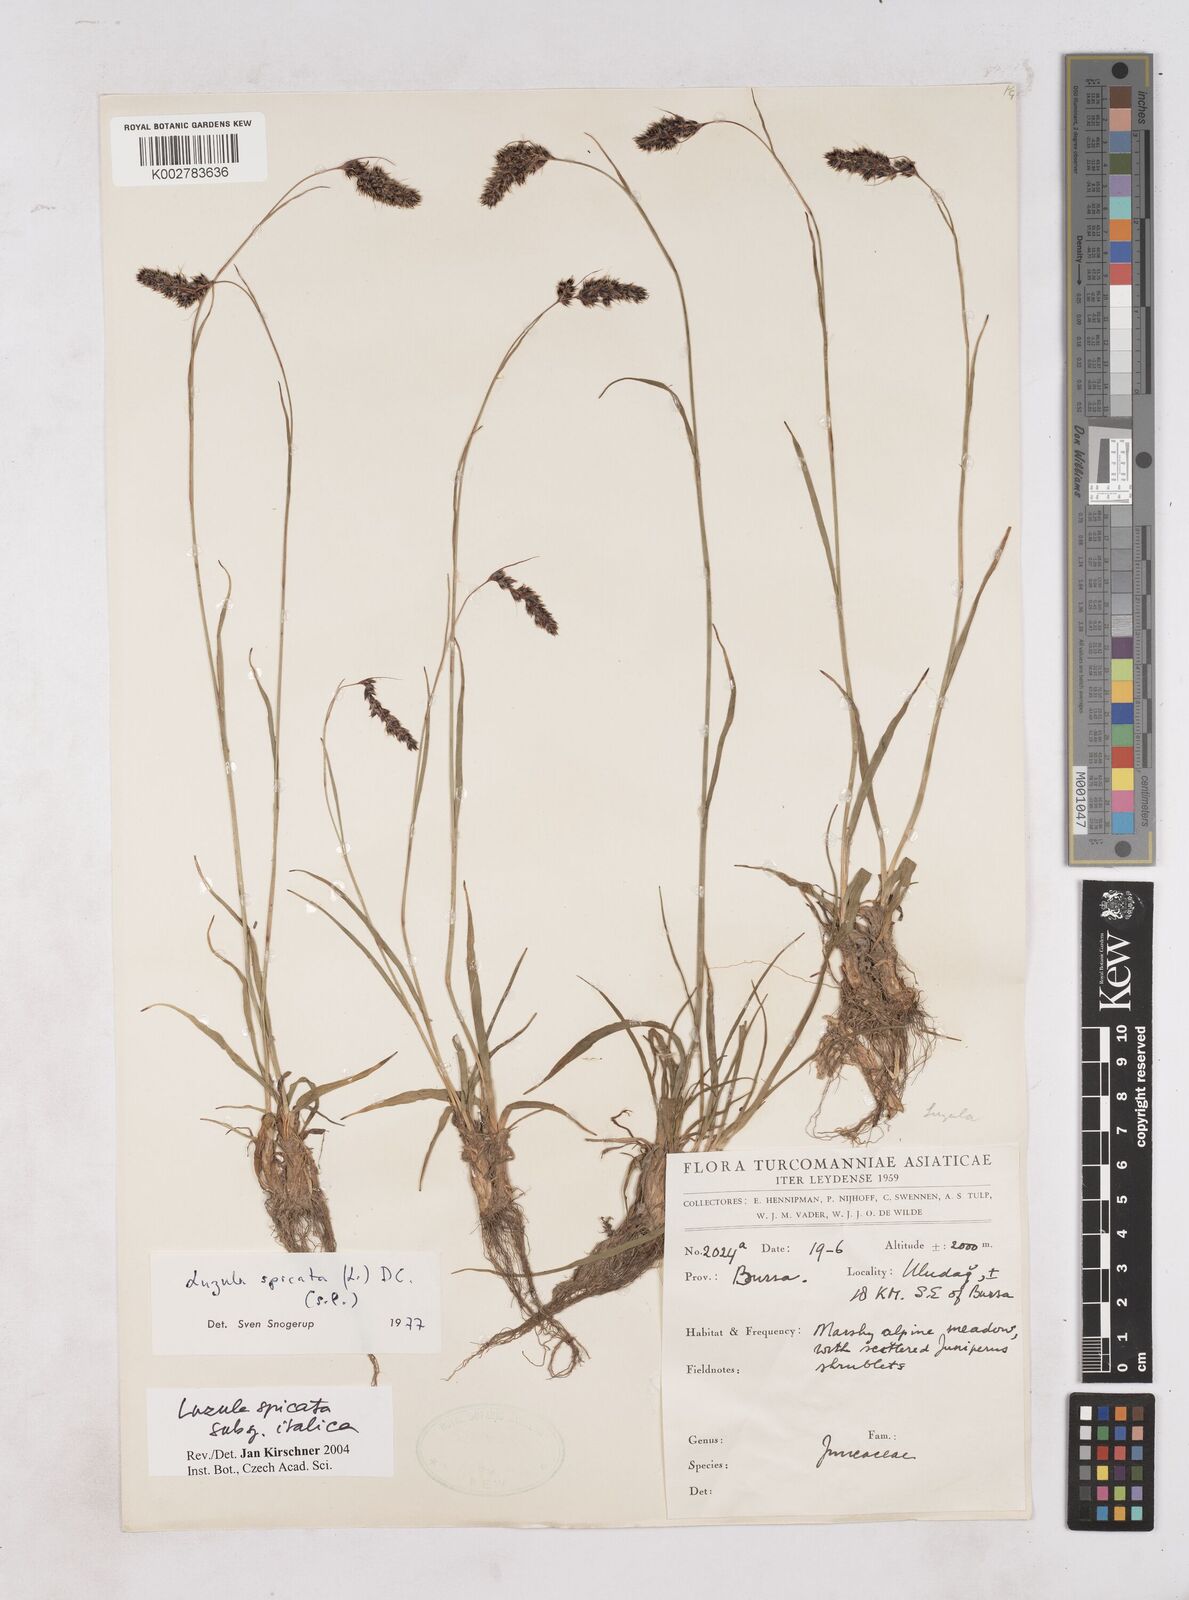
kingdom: Plantae
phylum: Tracheophyta
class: Liliopsida
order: Poales
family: Juncaceae
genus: Luzula
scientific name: Luzula spicata
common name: Spiked wood-rush
